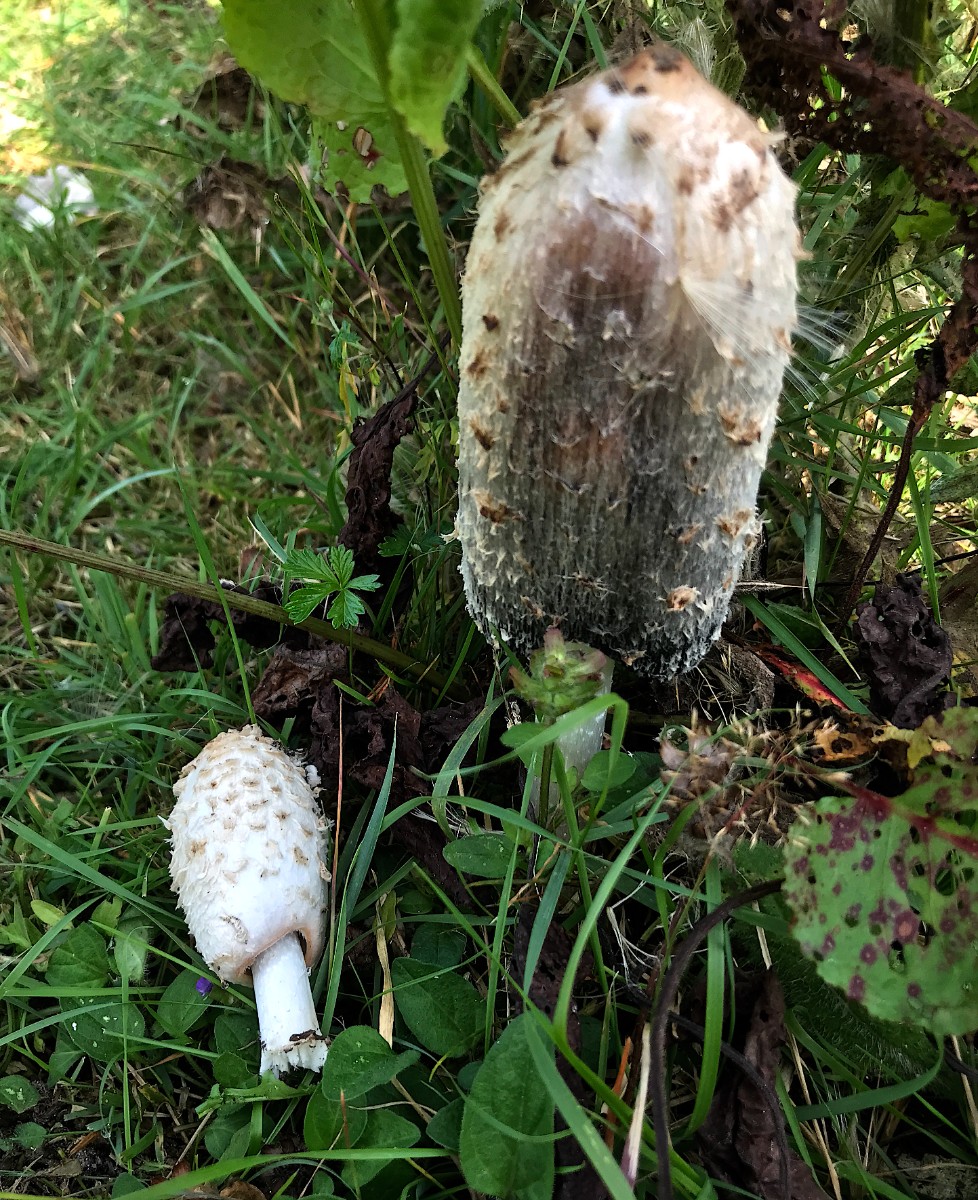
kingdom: Fungi
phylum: Basidiomycota
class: Agaricomycetes
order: Agaricales
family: Agaricaceae
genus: Coprinus
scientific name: Coprinus comatus
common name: stor parykhat
